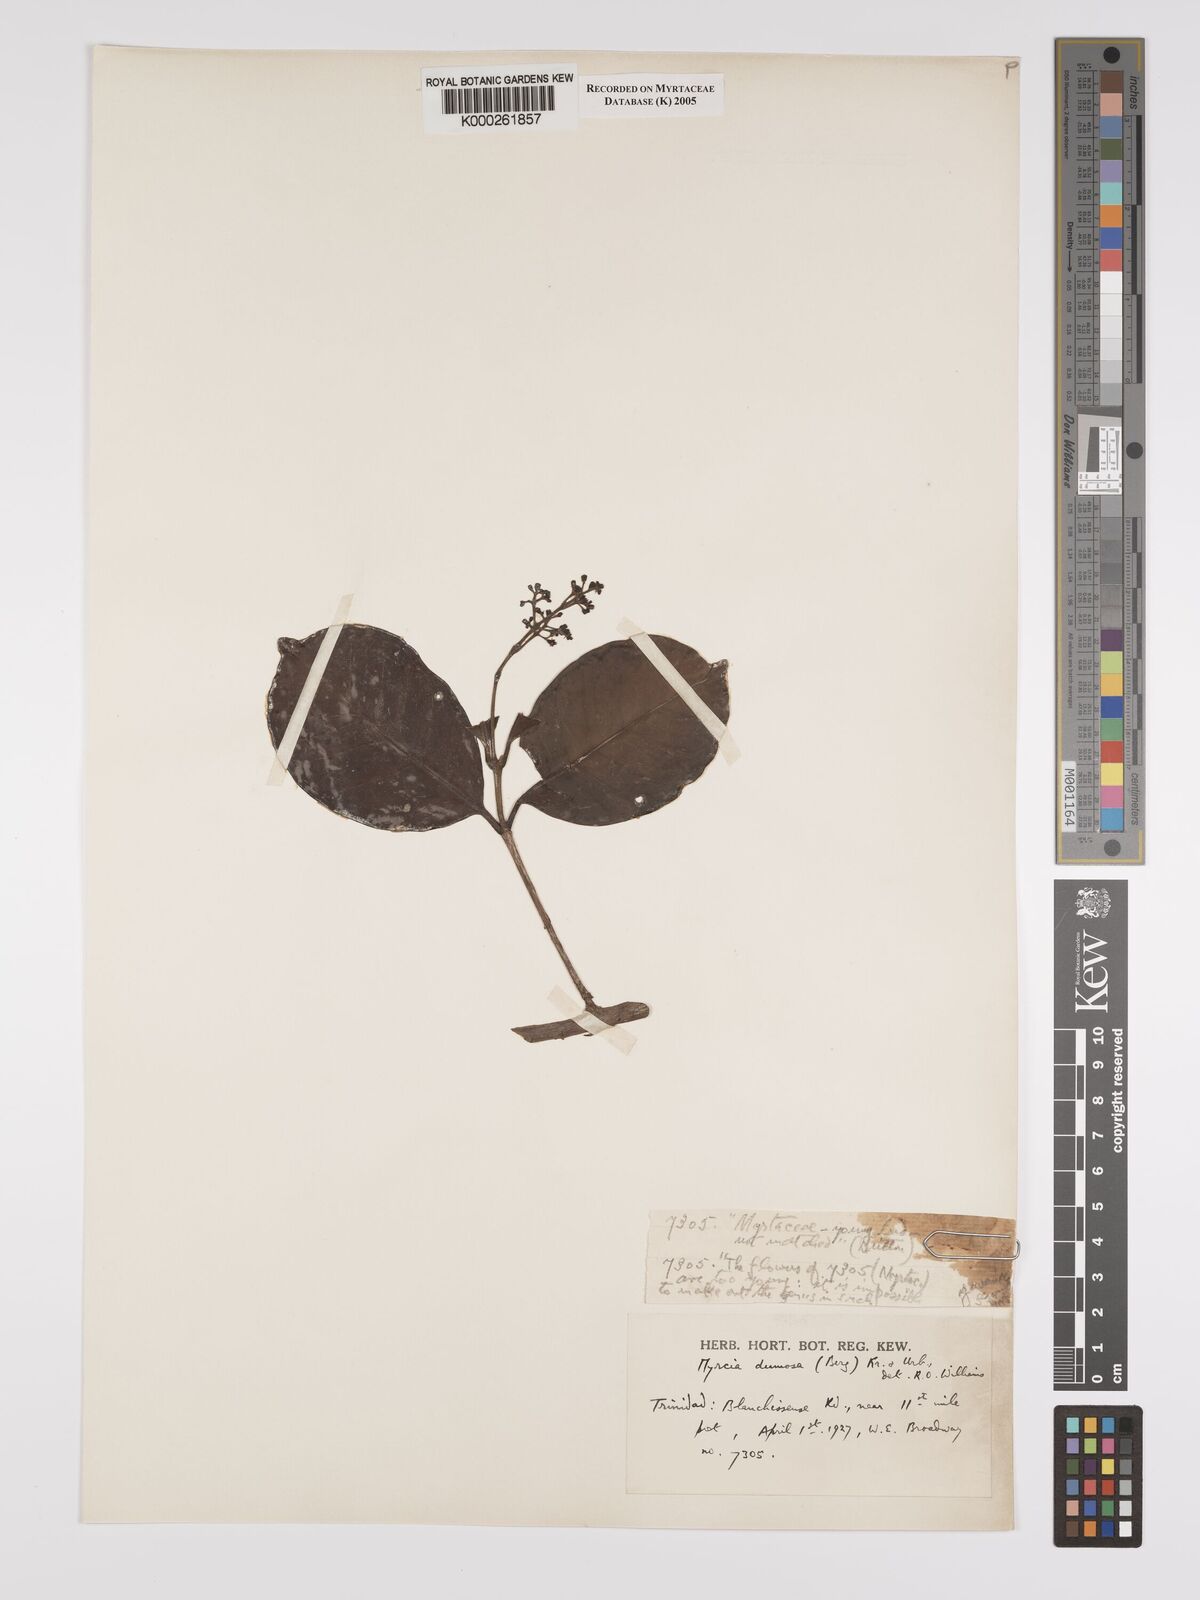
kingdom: Plantae
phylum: Tracheophyta
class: Magnoliopsida
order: Myrtales
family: Myrtaceae
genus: Myrcia
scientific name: Myrcia platyclada
